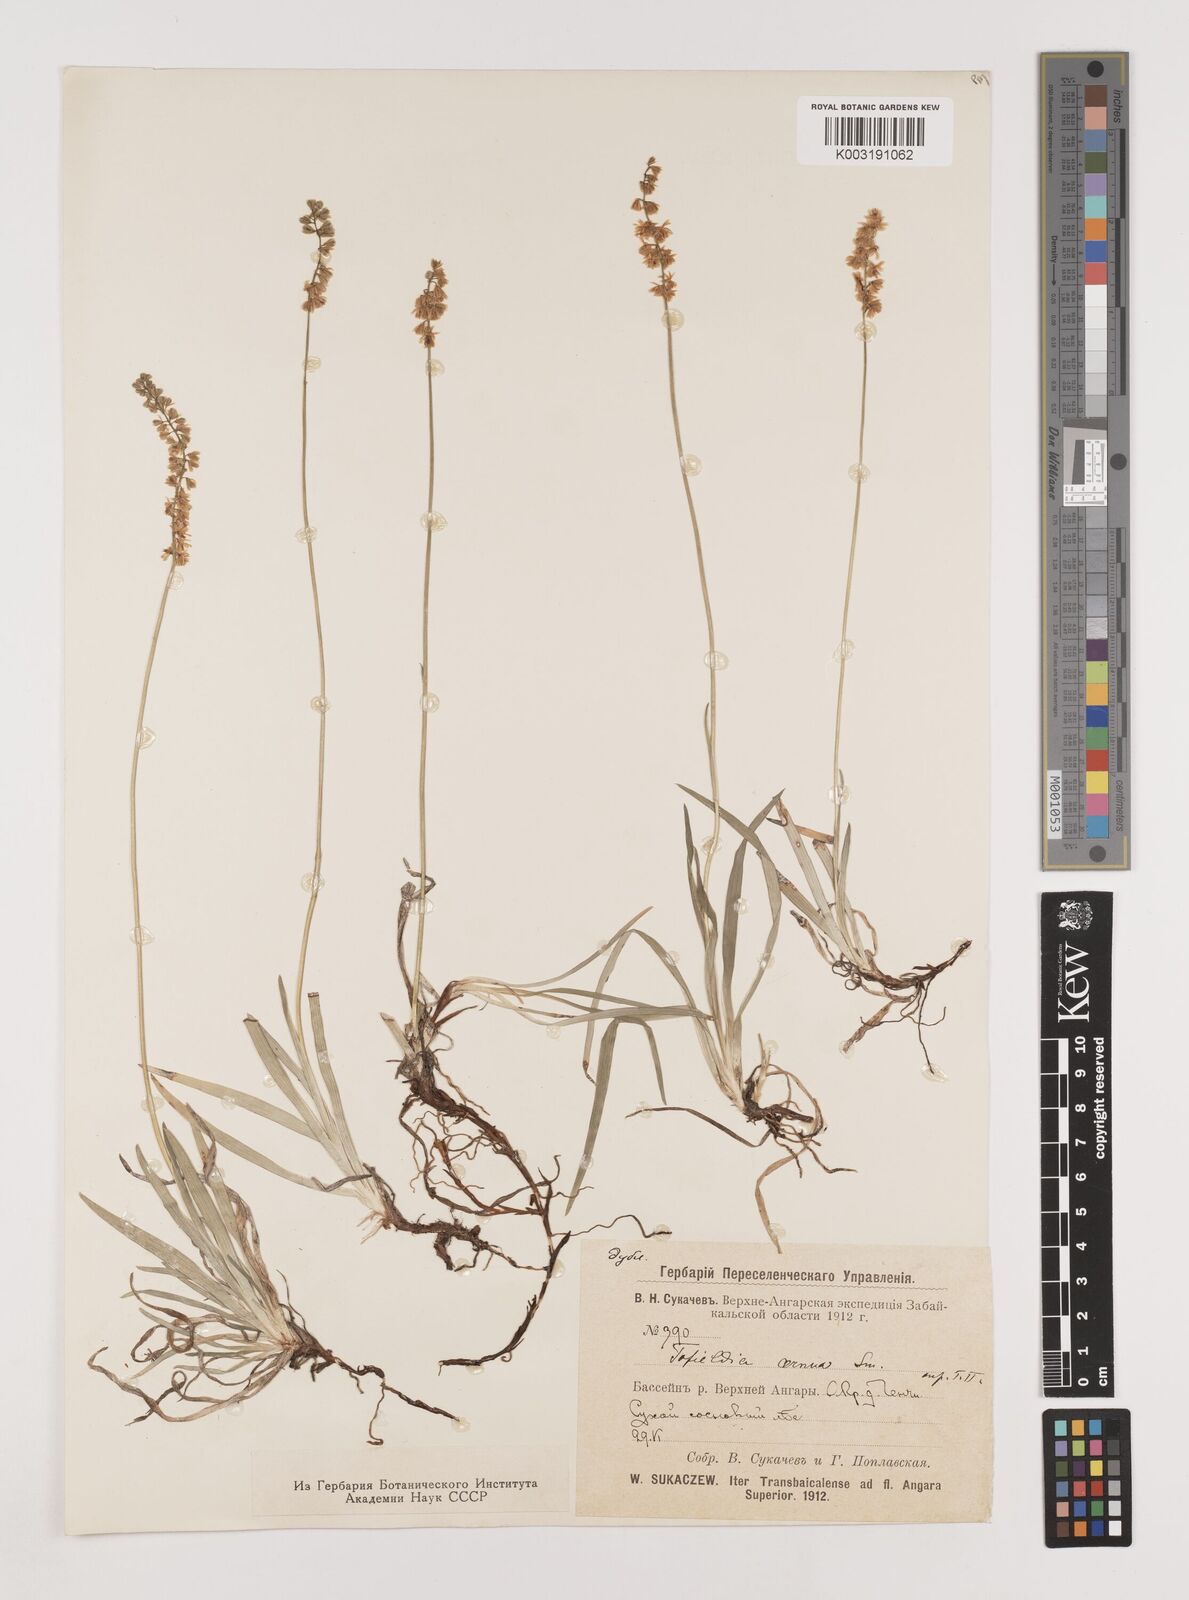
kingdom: Plantae
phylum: Tracheophyta
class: Liliopsida
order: Alismatales
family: Tofieldiaceae
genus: Tofieldia
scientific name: Tofieldia cernua
